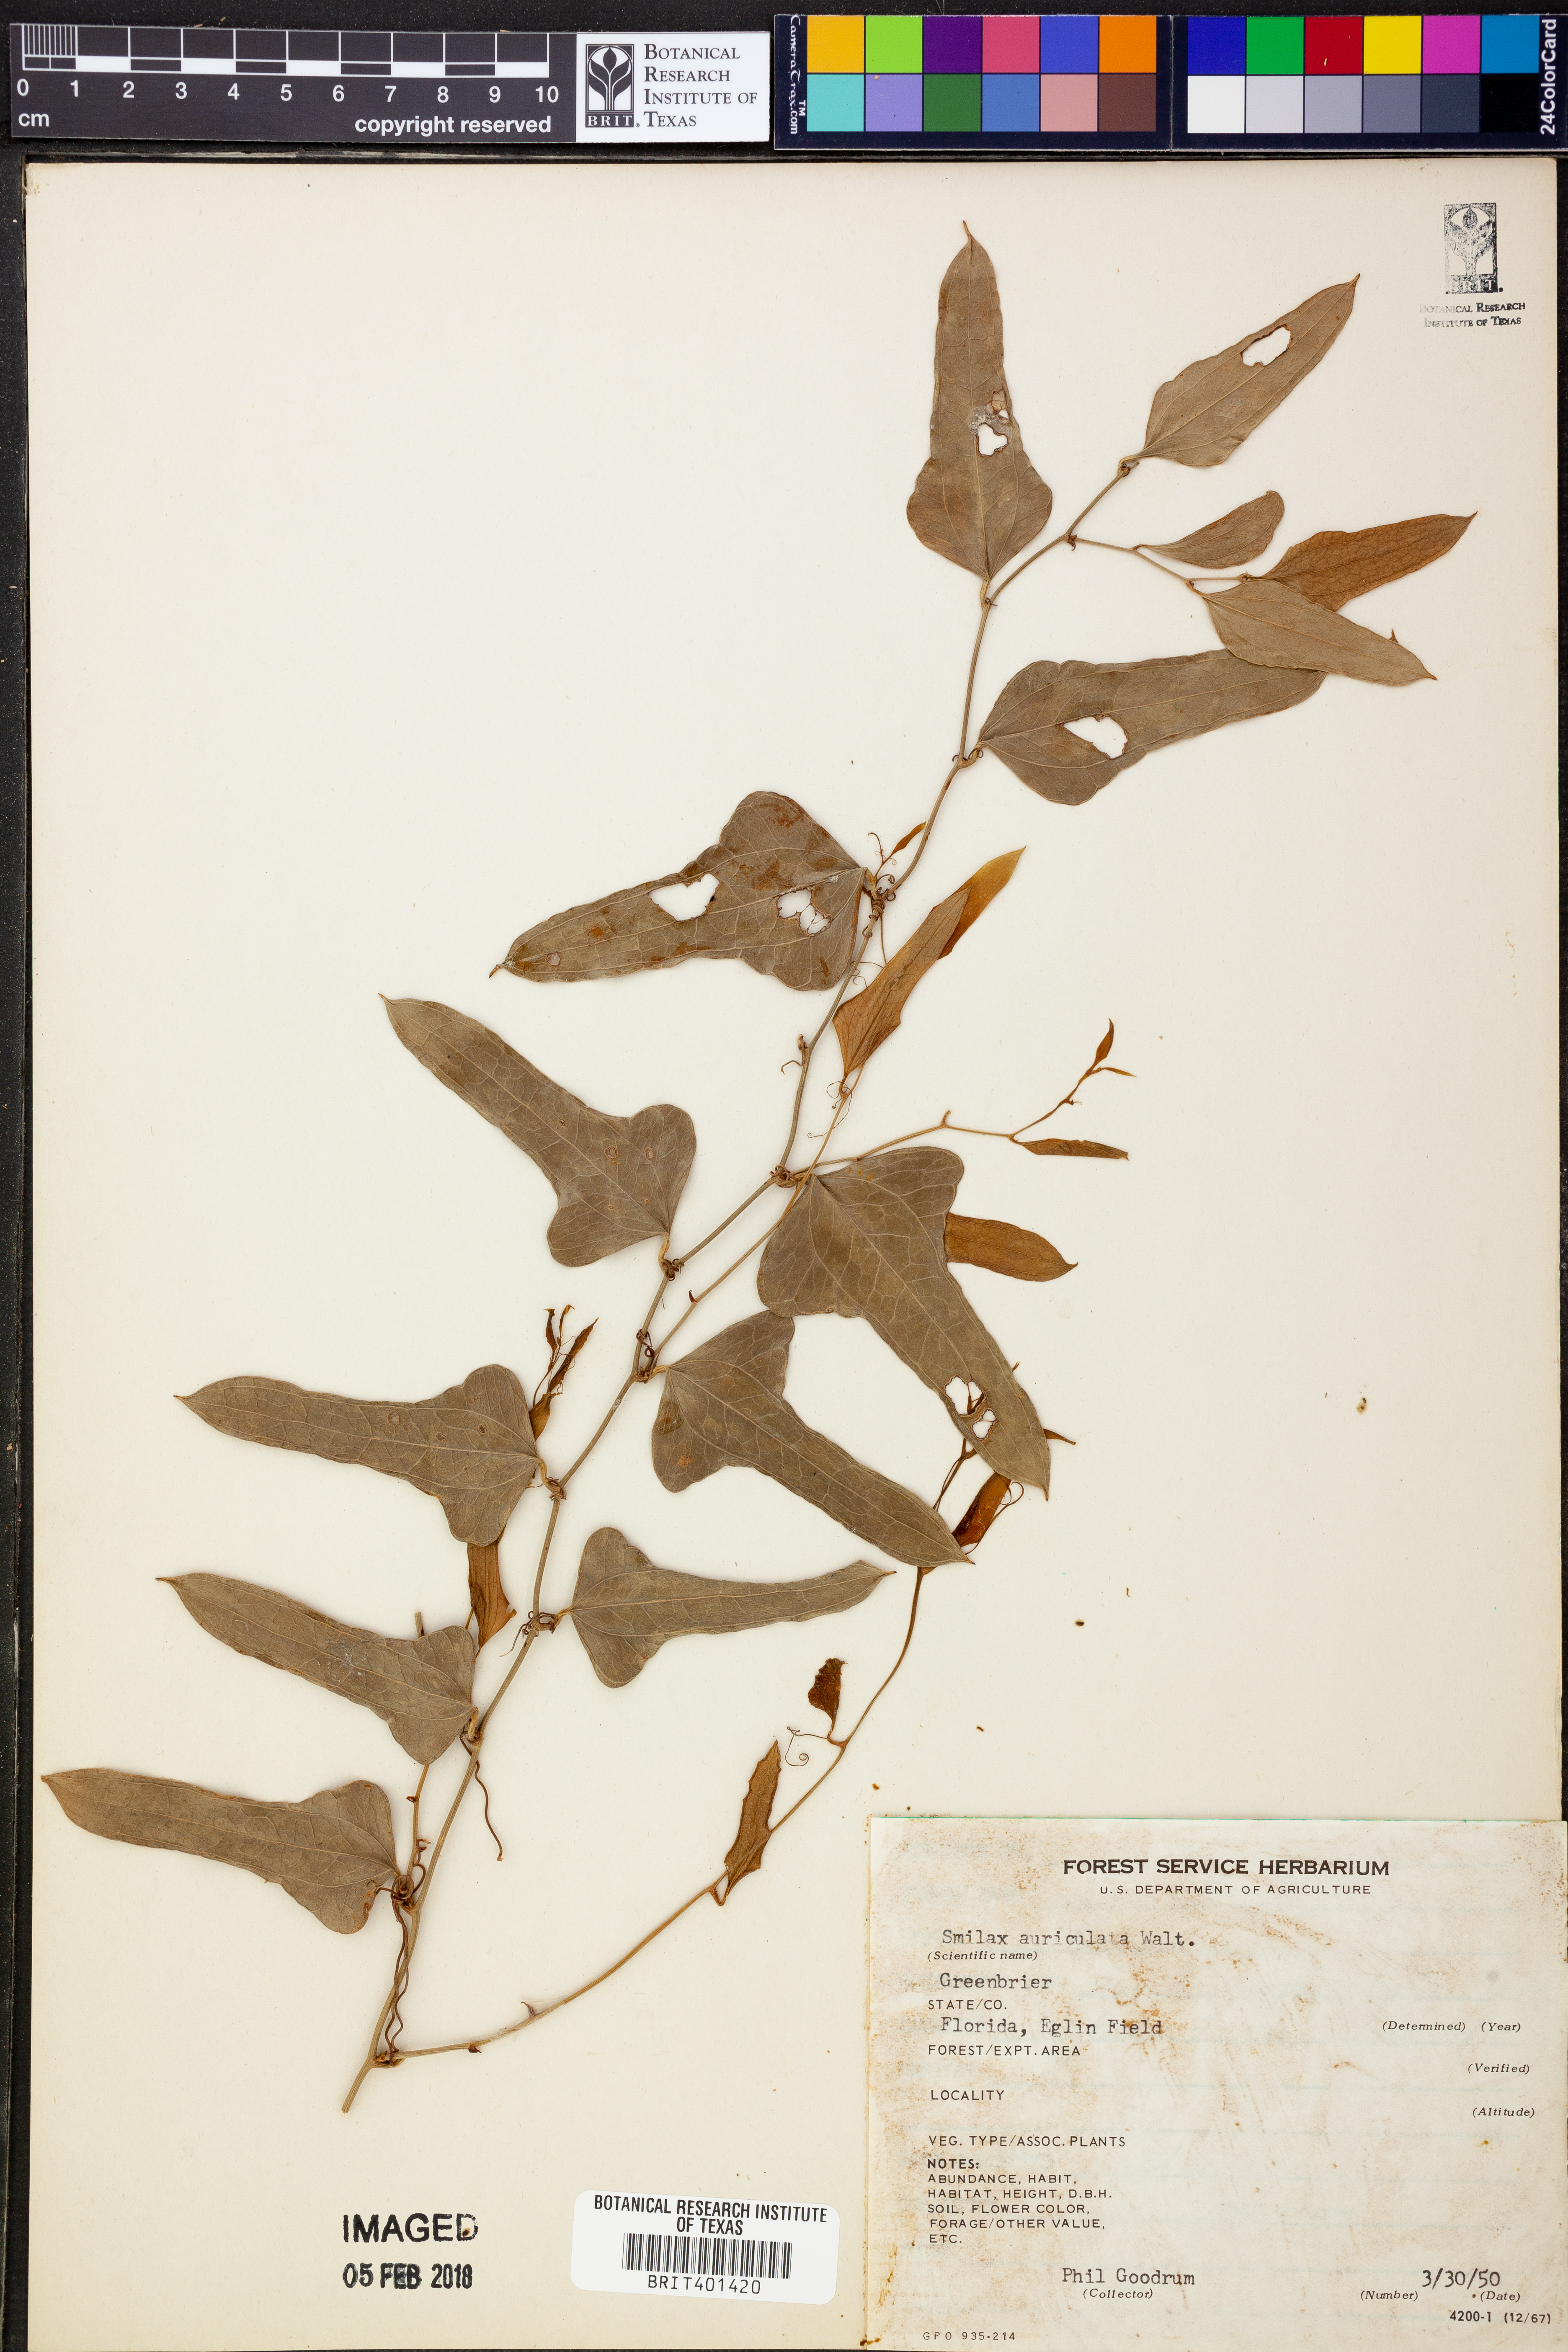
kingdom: Plantae
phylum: Tracheophyta
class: Liliopsida
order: Liliales
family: Smilacaceae
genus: Smilax
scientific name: Smilax auriculata
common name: Wild bamboo
